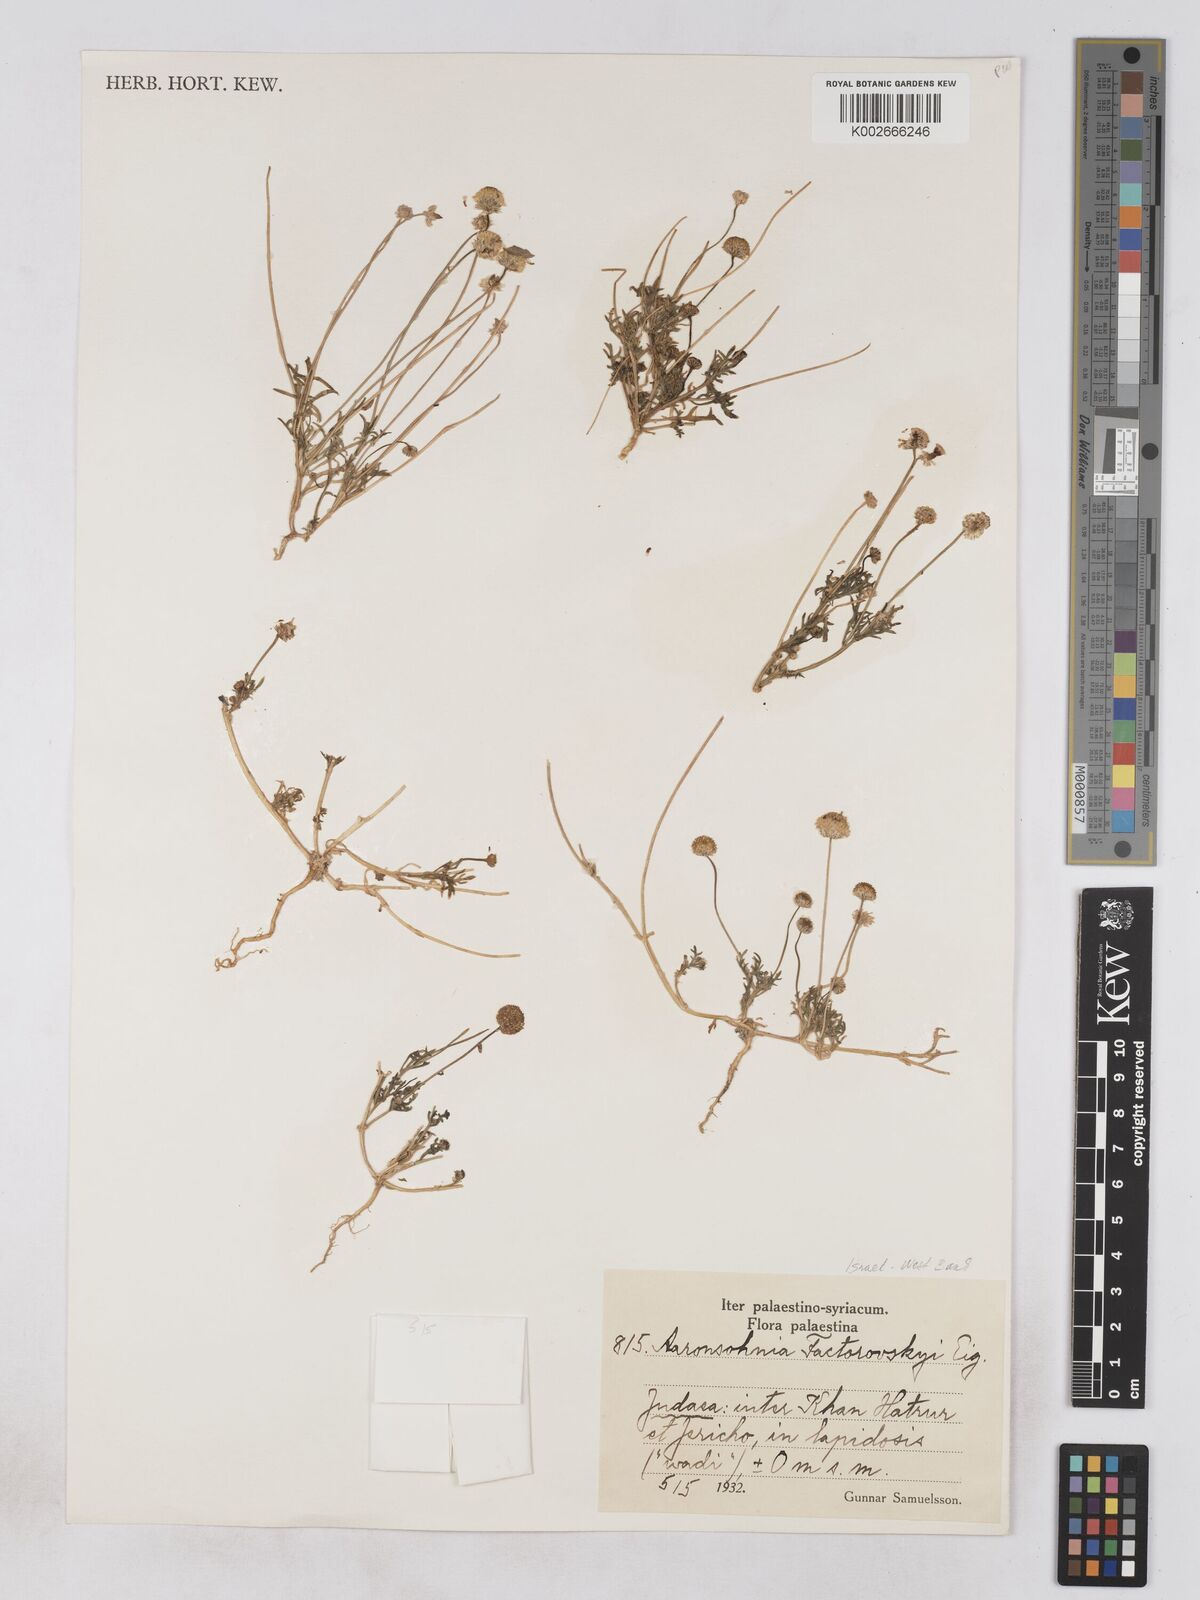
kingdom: Plantae
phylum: Tracheophyta
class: Magnoliopsida
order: Asterales
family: Asteraceae
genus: Otoglyphis
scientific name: Otoglyphis factorovskyi
